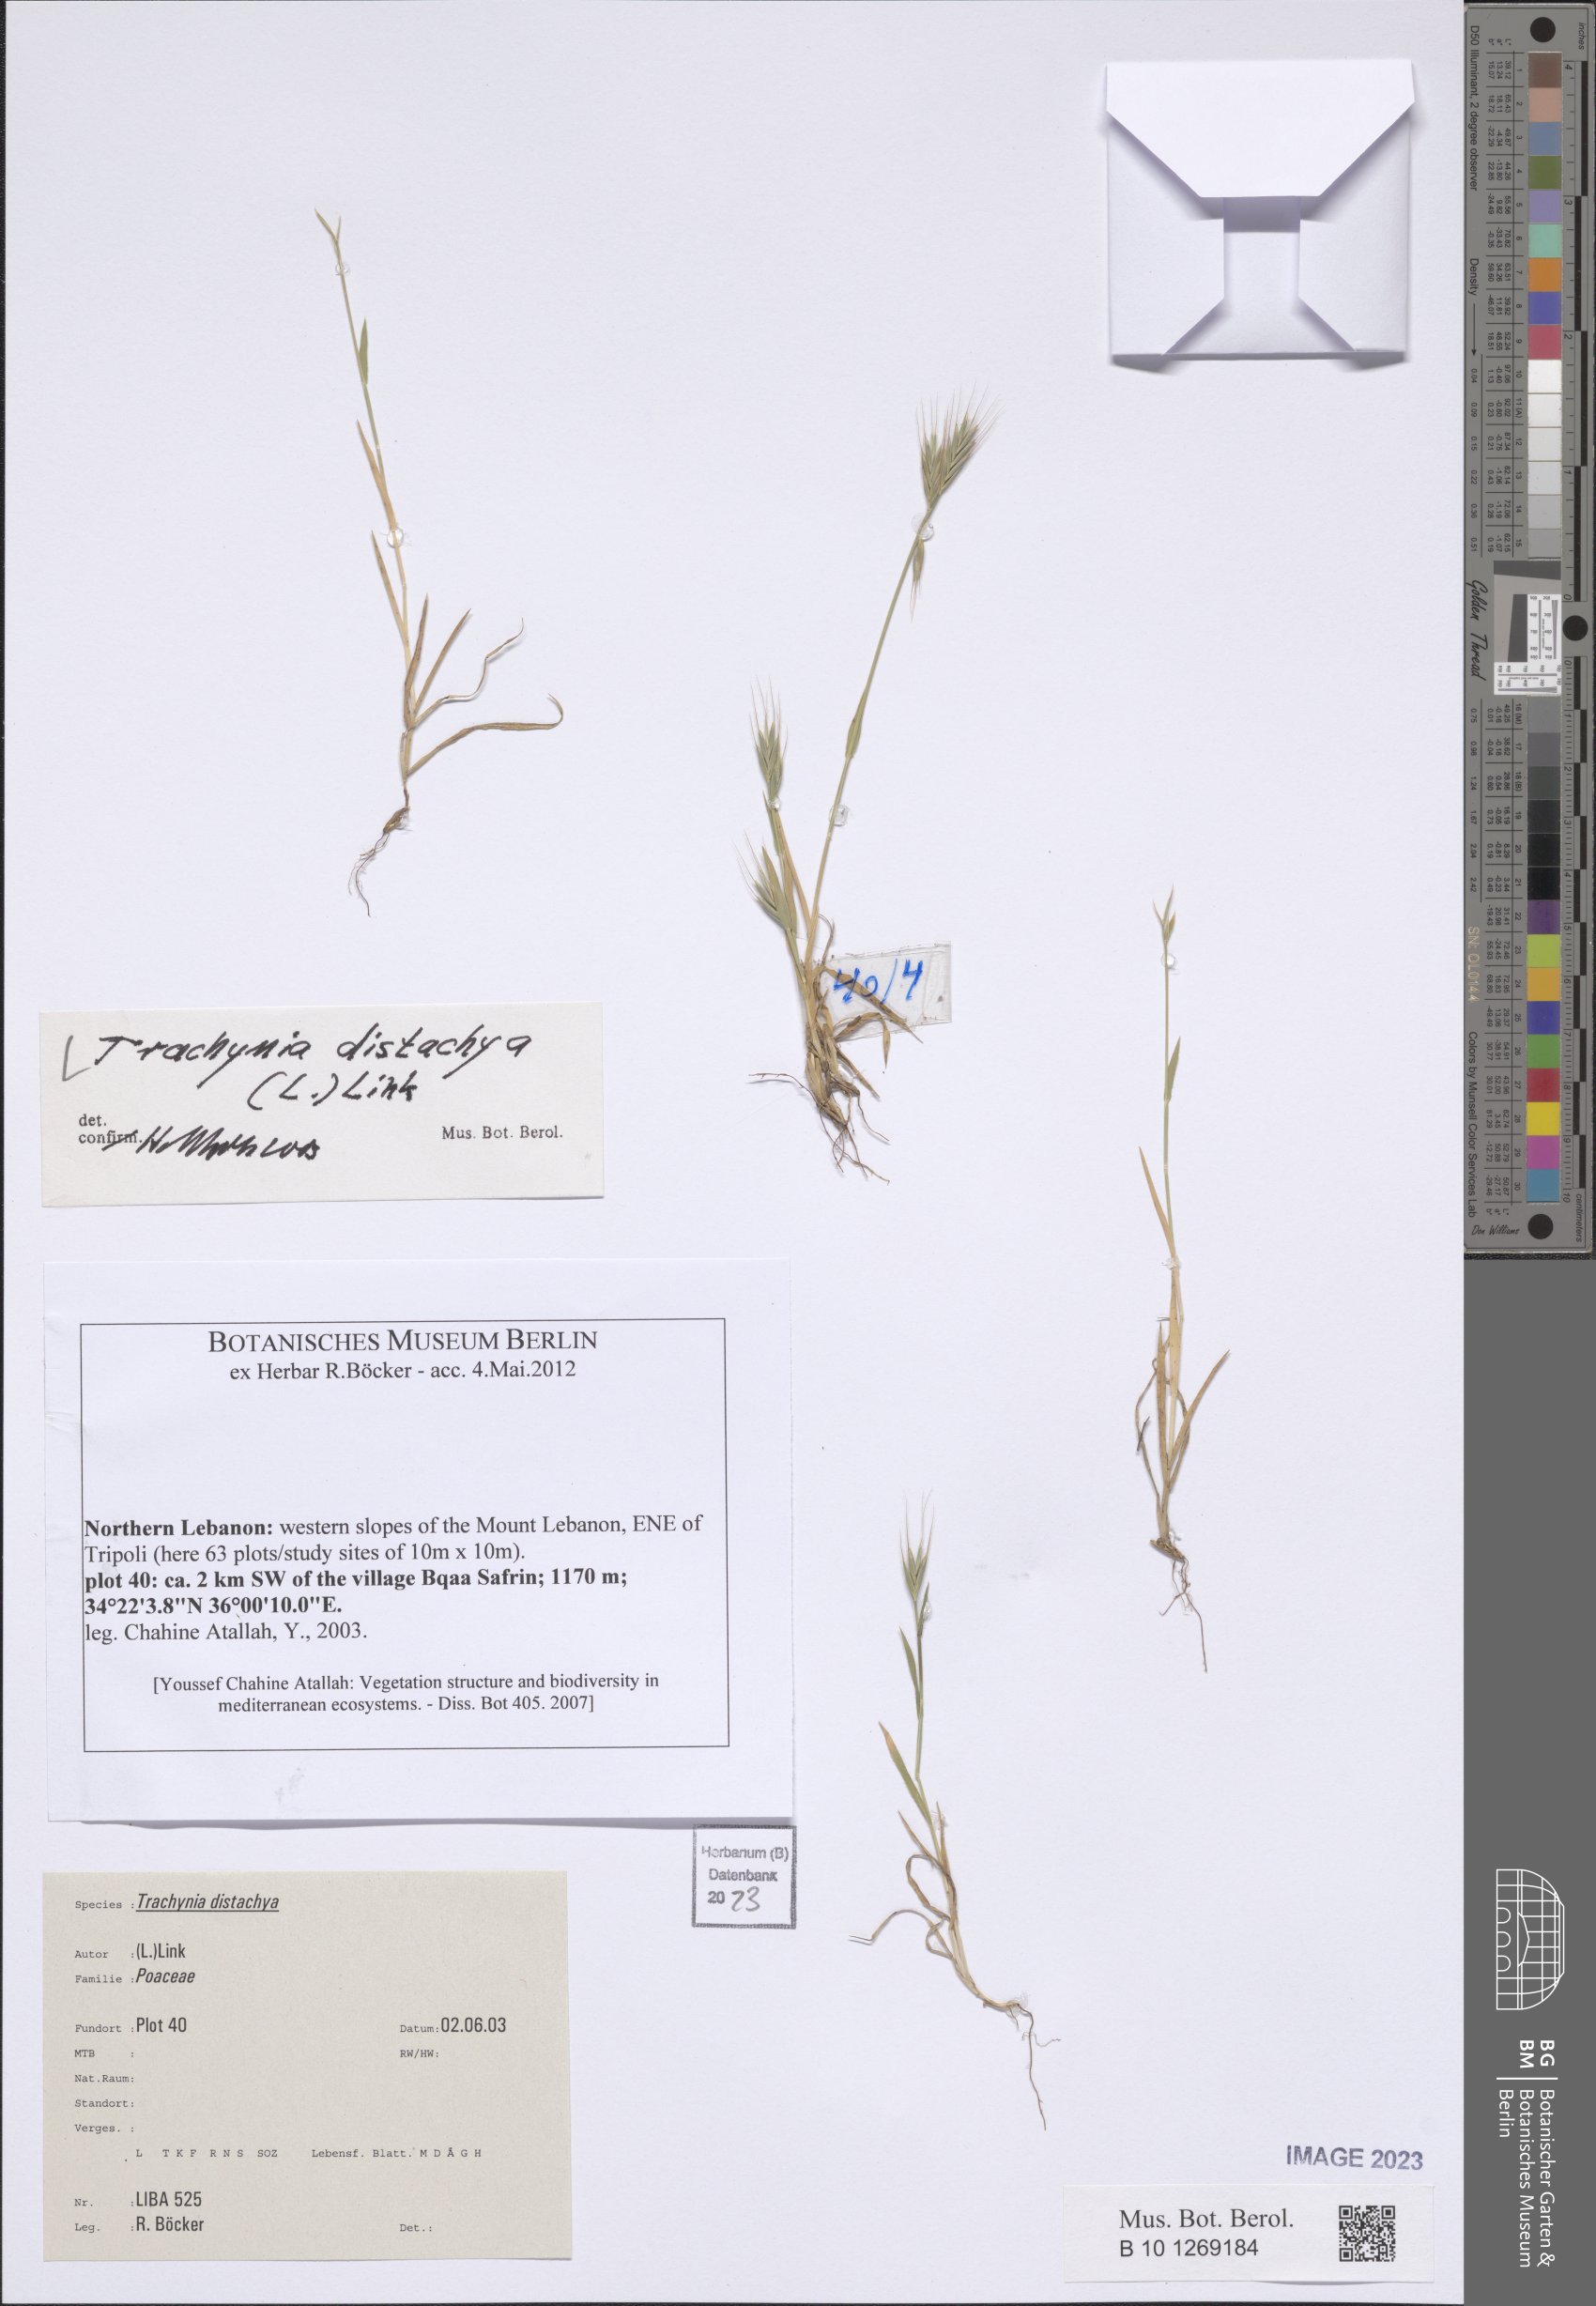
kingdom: Plantae
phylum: Tracheophyta
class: Liliopsida
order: Poales
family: Poaceae
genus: Brachypodium
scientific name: Brachypodium distachyon
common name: Stiff brome
